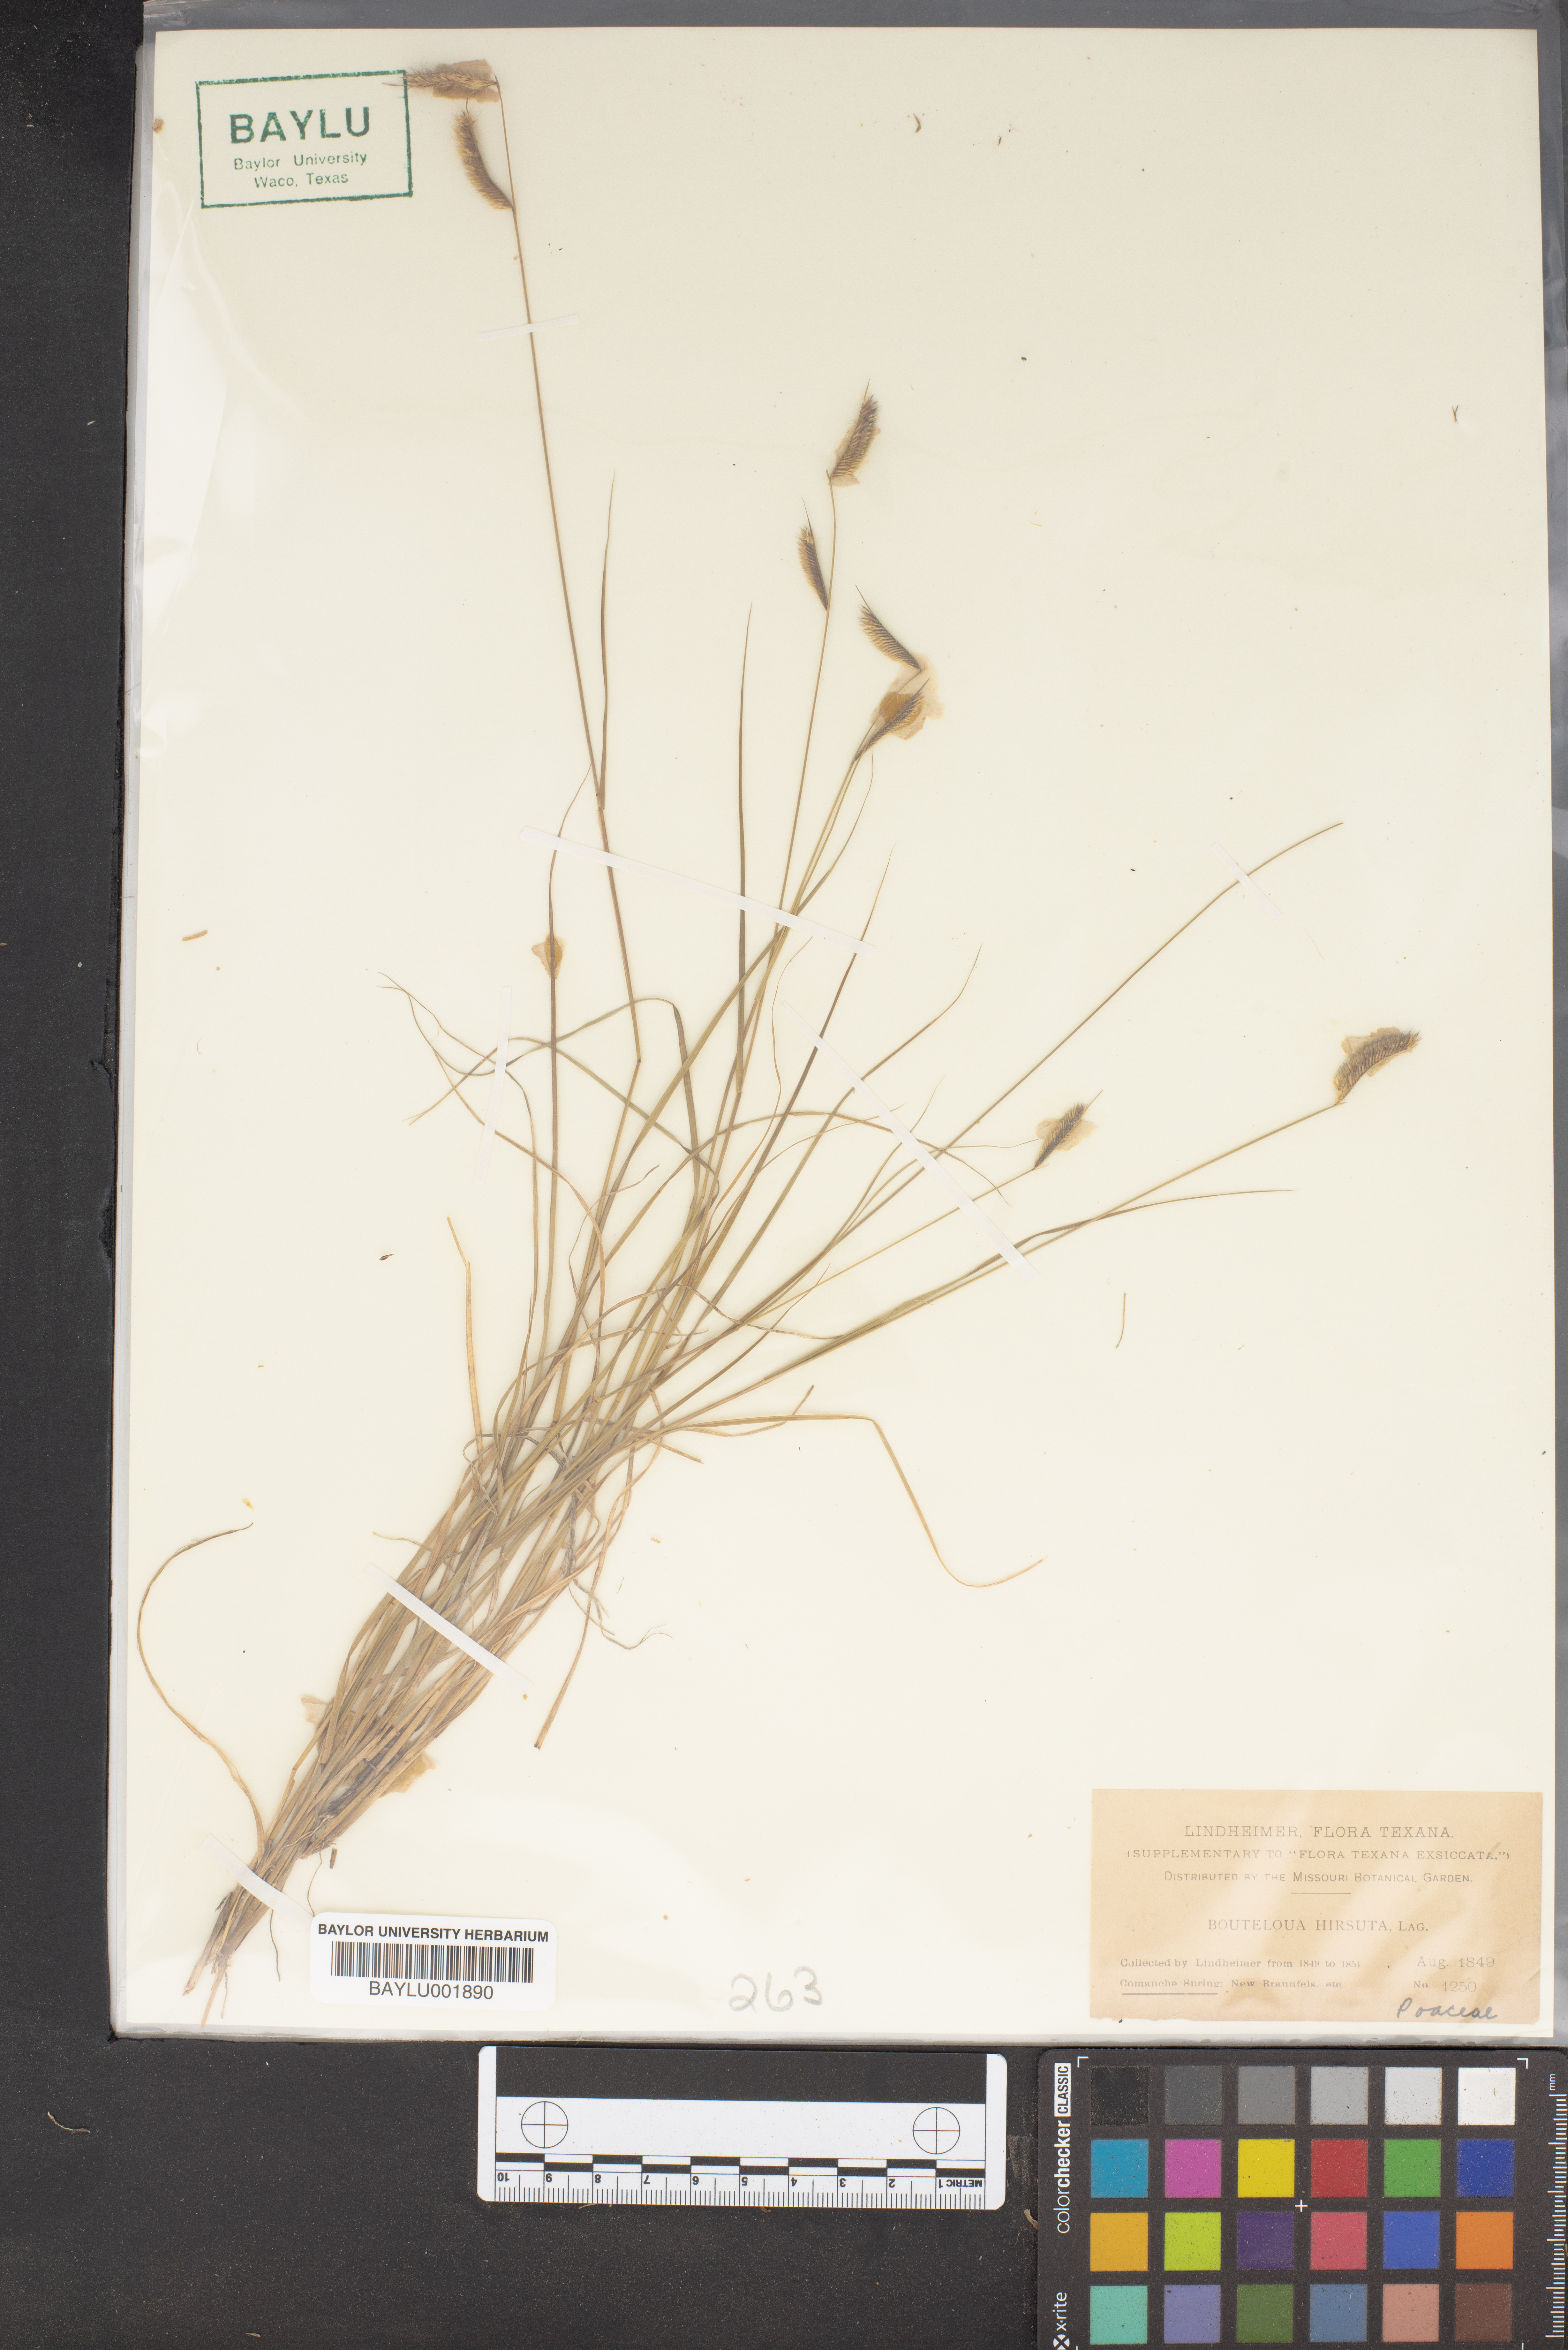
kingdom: Plantae
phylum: Tracheophyta
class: Liliopsida
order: Poales
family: Poaceae
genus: Bouteloua
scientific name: Bouteloua hirsuta
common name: Hairy grama
